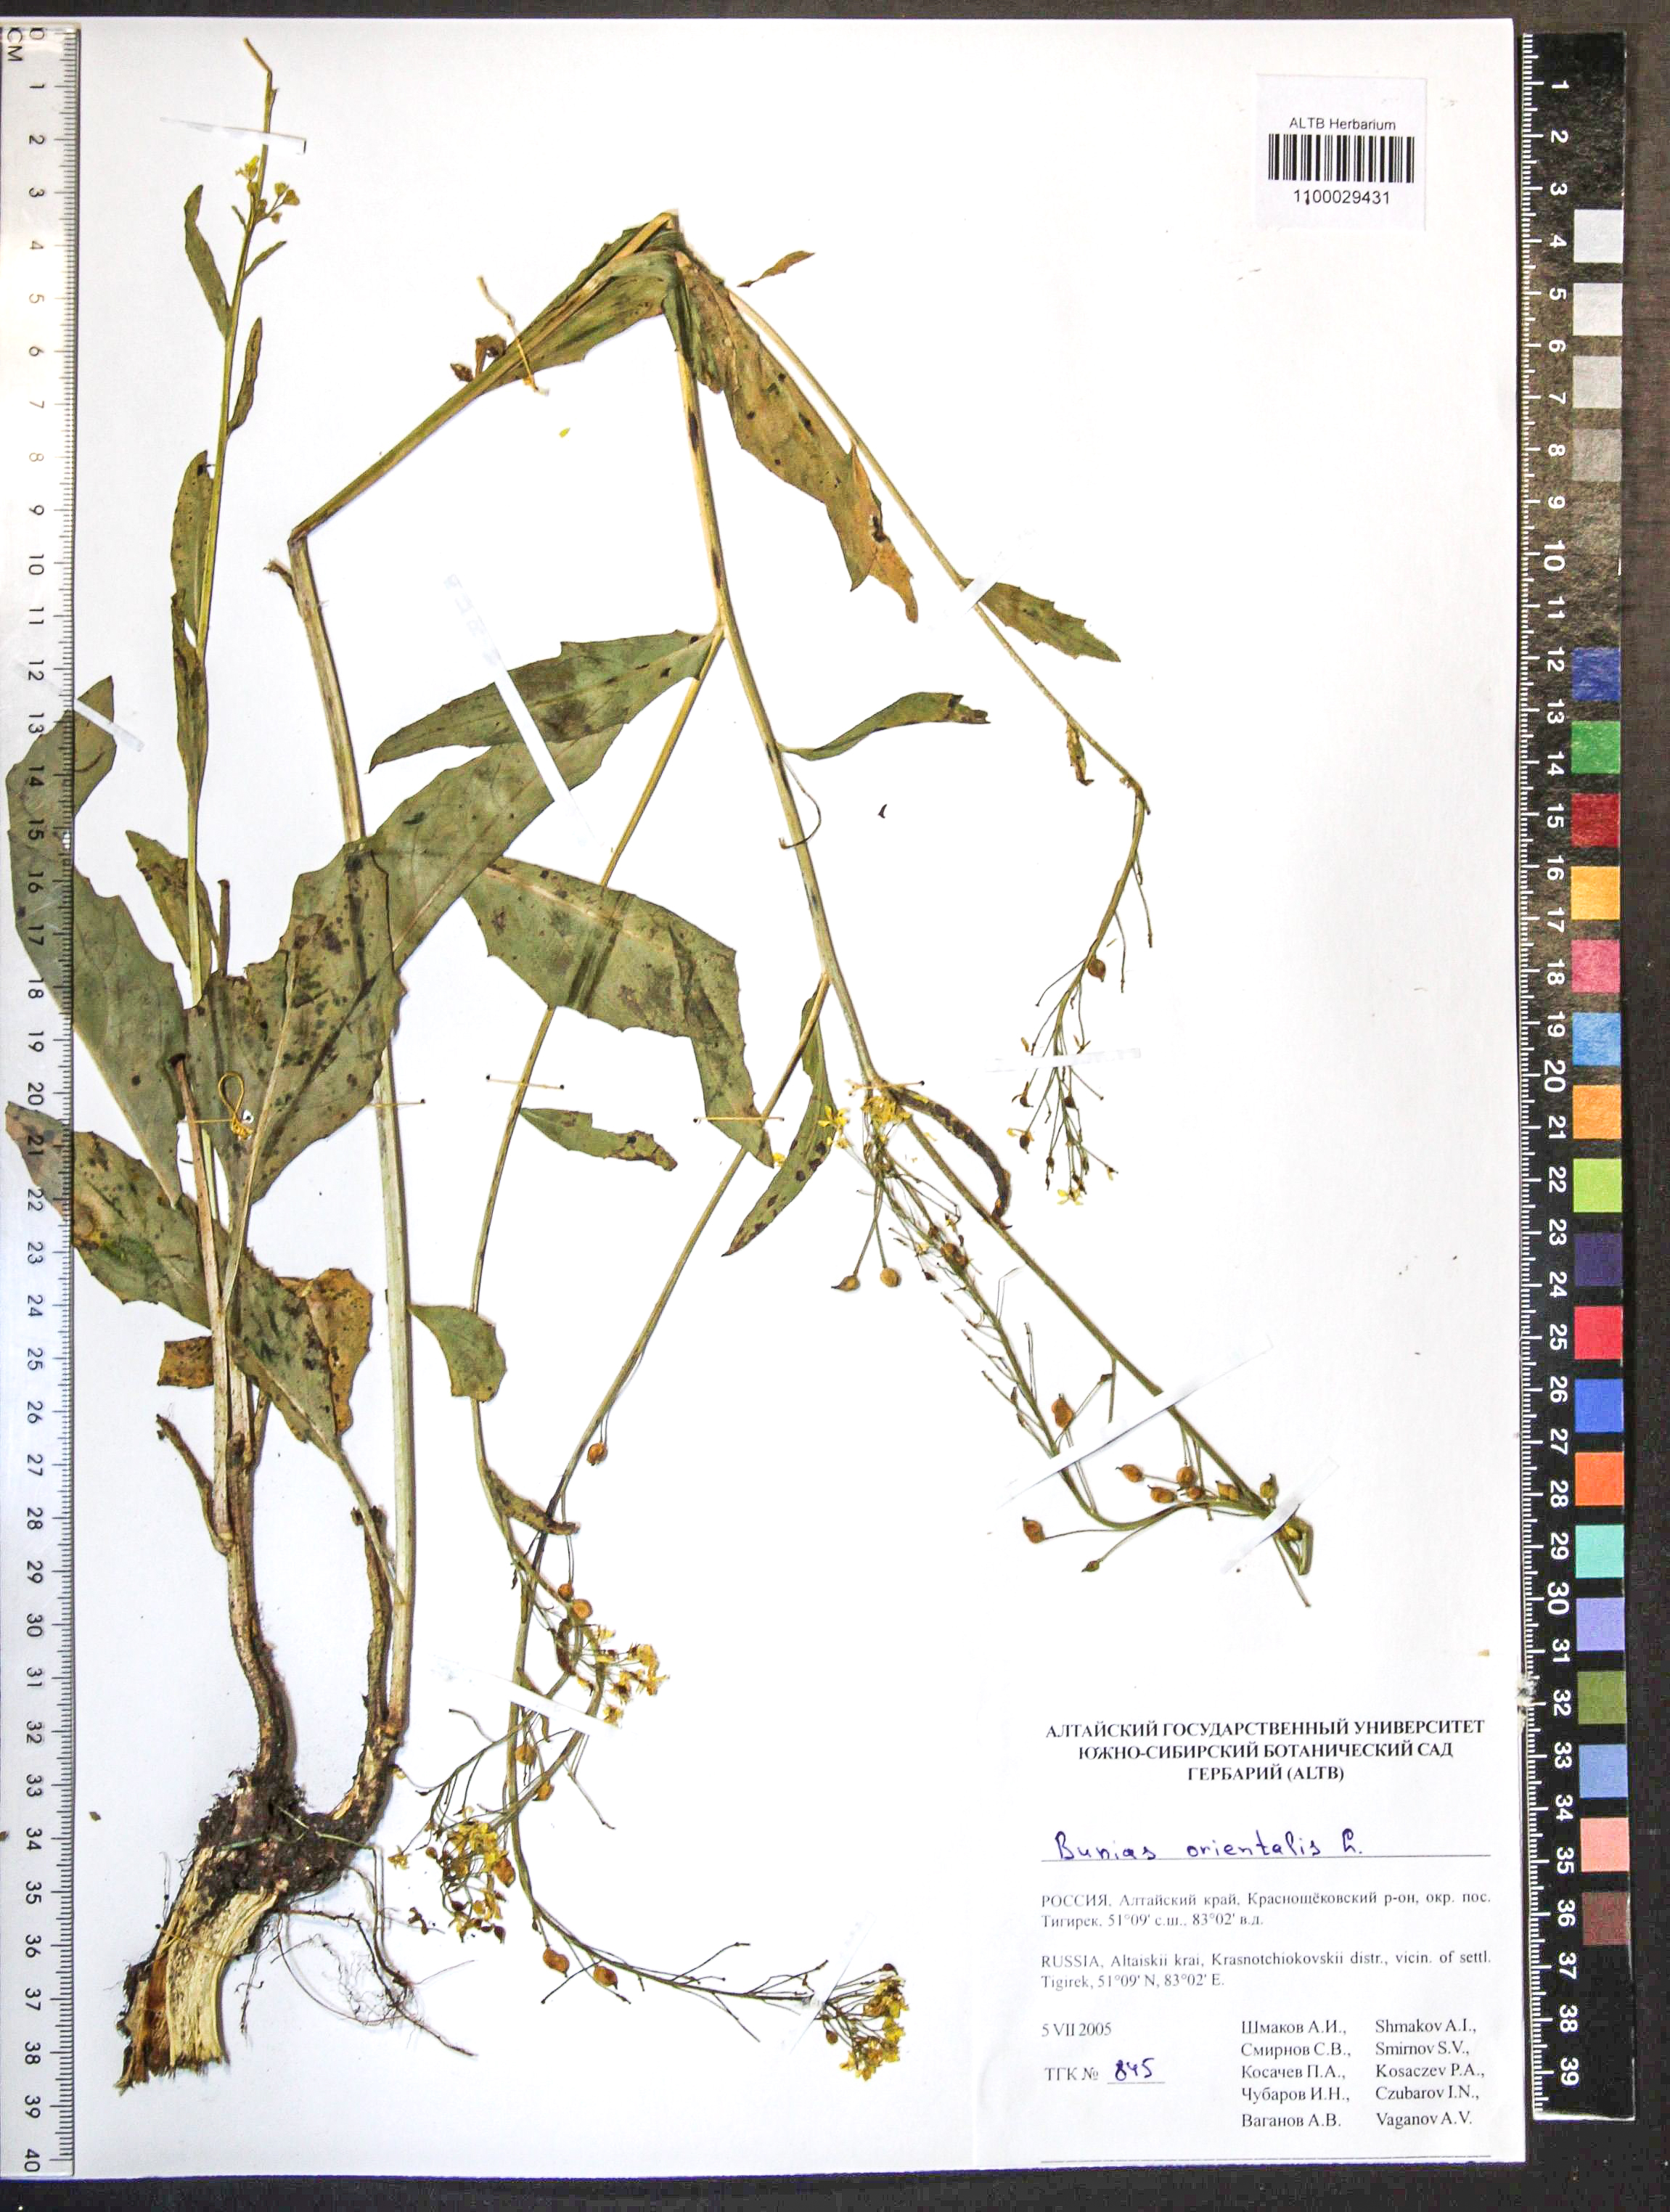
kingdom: Plantae
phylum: Tracheophyta
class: Magnoliopsida
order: Brassicales
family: Brassicaceae
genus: Bunias
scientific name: Bunias orientalis
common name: Warty-cabbage
